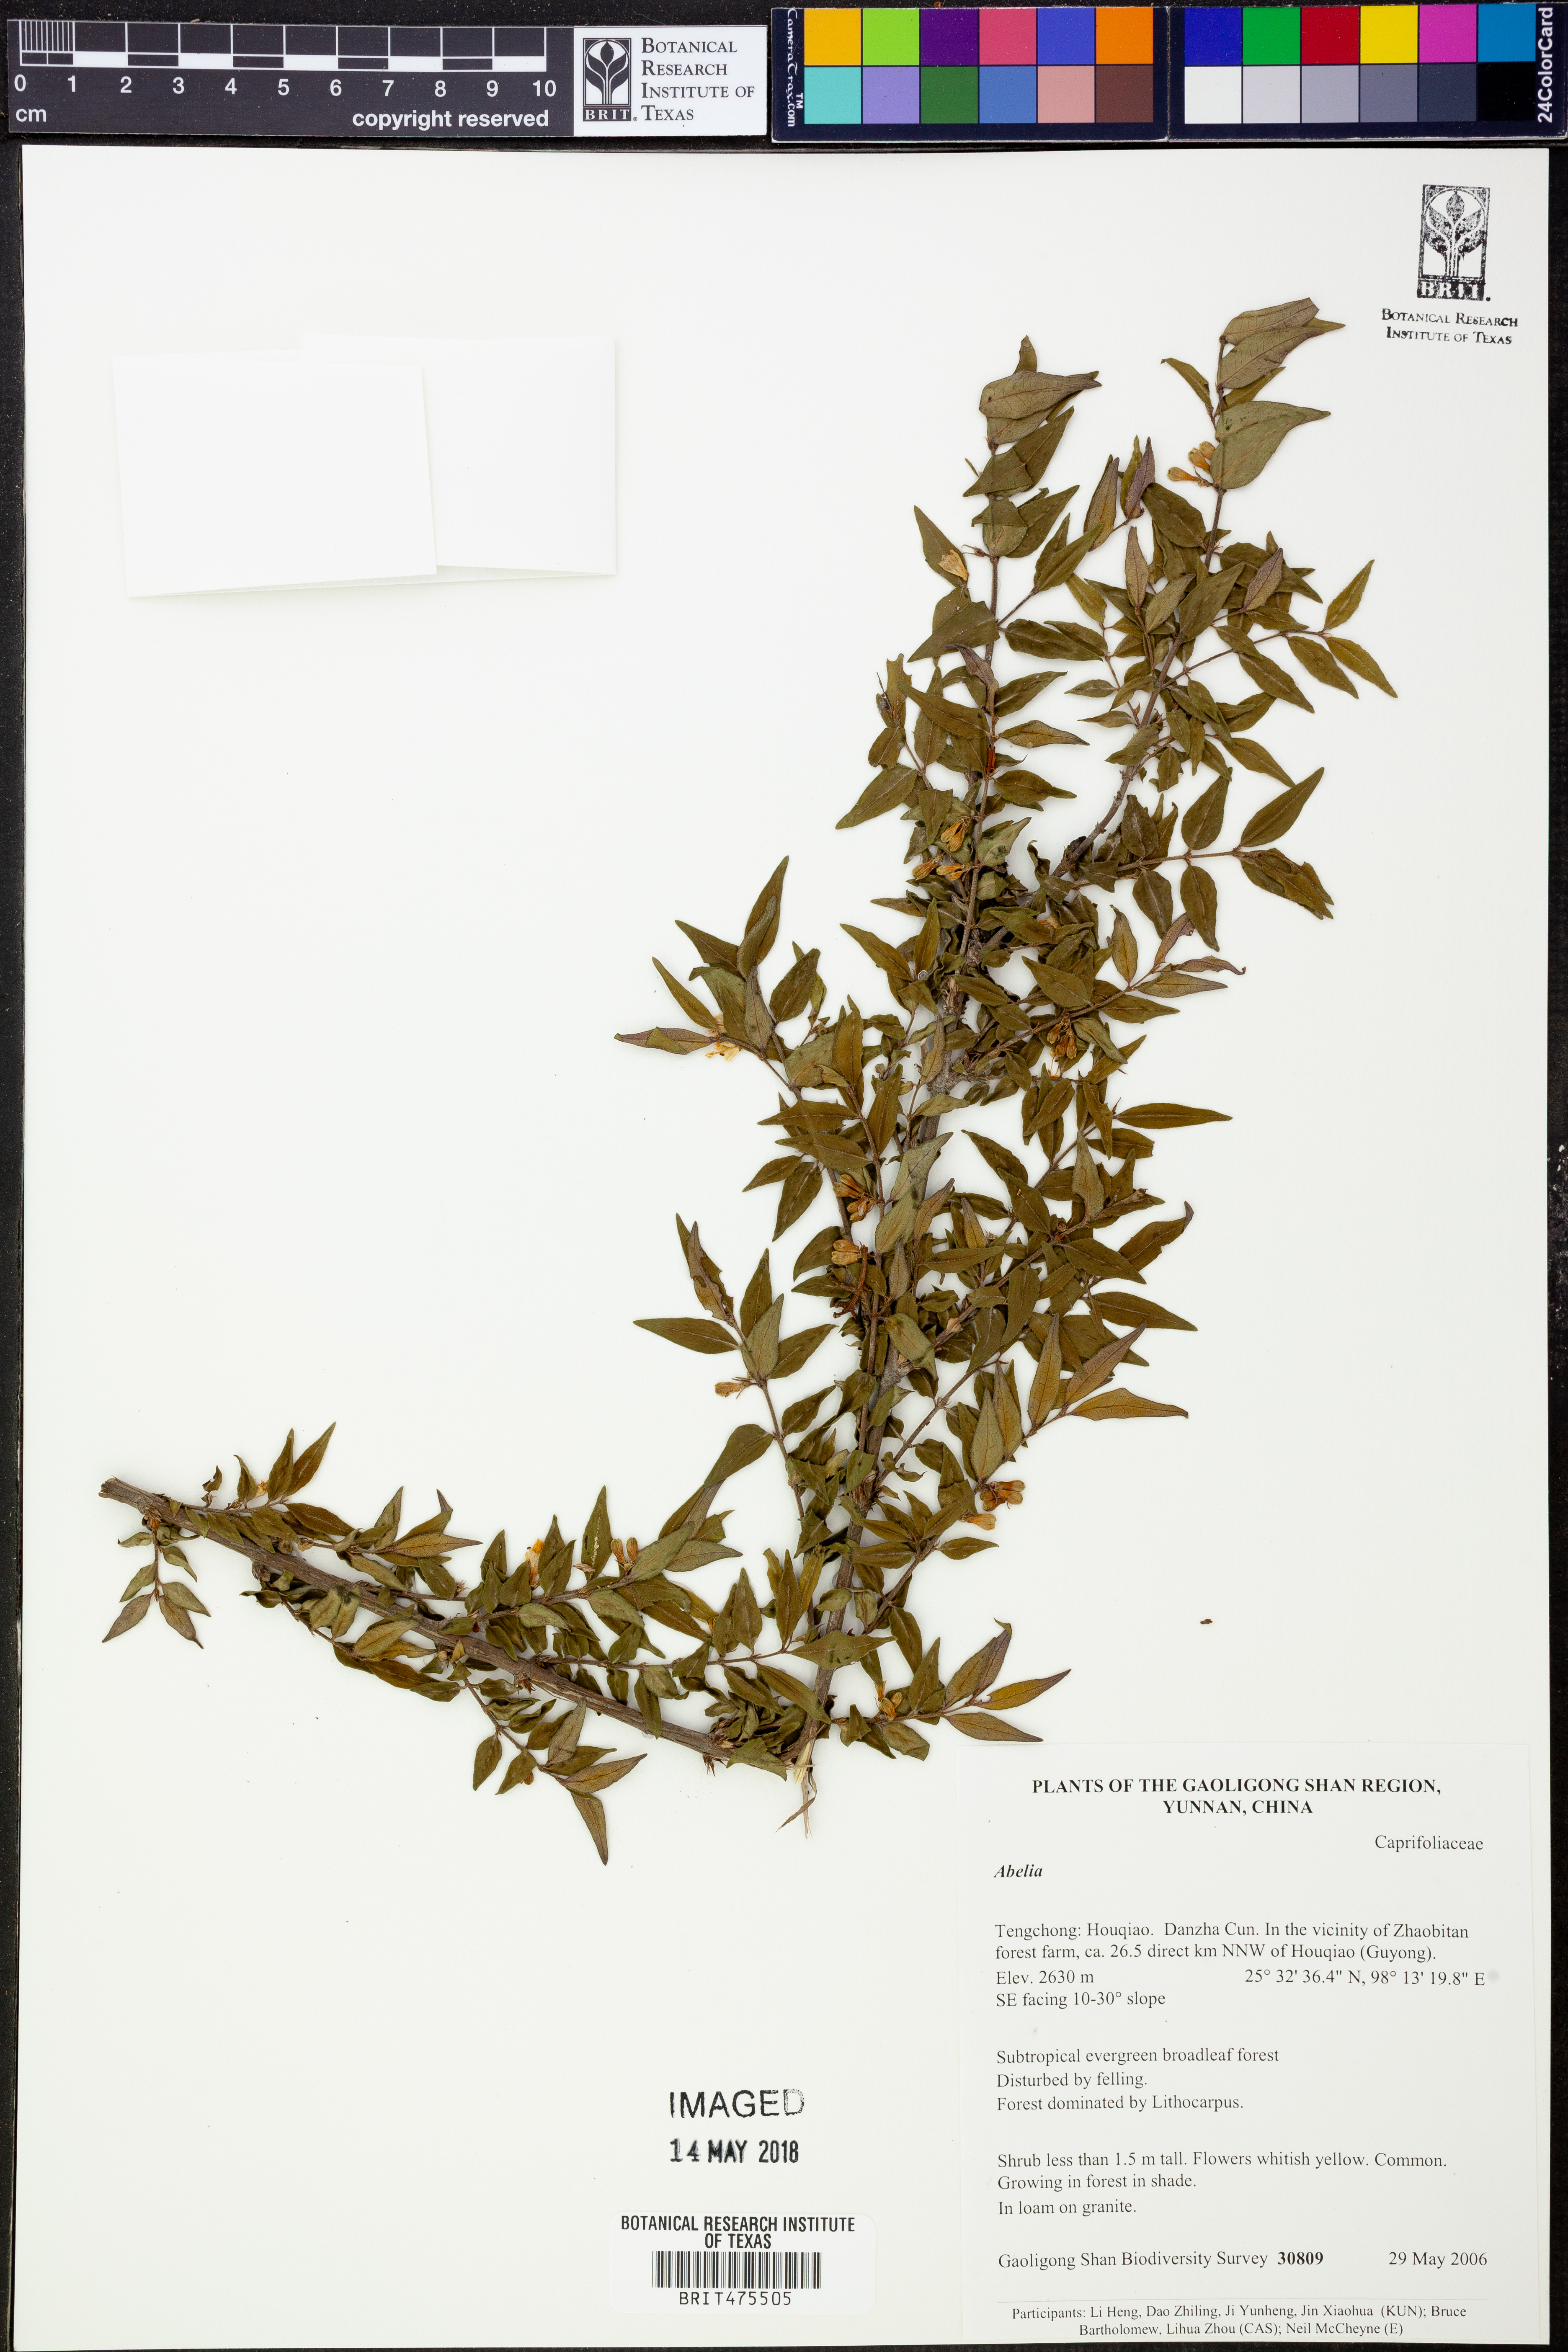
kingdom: Plantae
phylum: Tracheophyta
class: Magnoliopsida
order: Dipsacales
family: Caprifoliaceae
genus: Abelia
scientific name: Abelia
